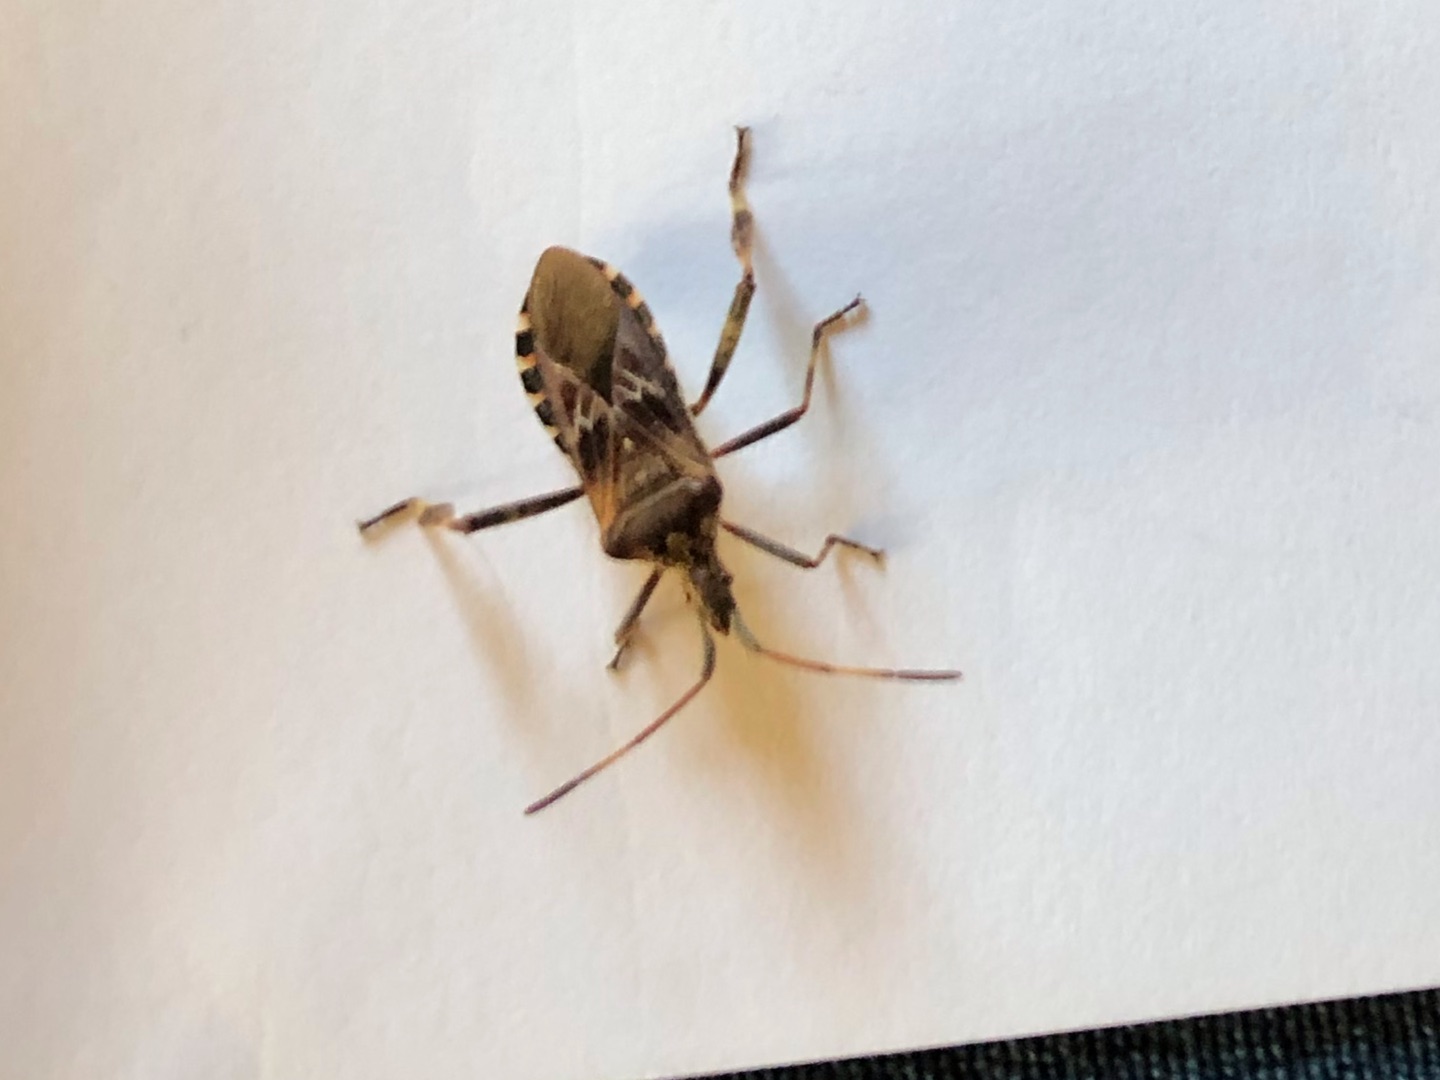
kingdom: Animalia
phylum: Arthropoda
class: Insecta
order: Hemiptera
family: Coreidae
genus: Leptoglossus
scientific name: Leptoglossus occidentalis
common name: Amerikansk fyrretæge
